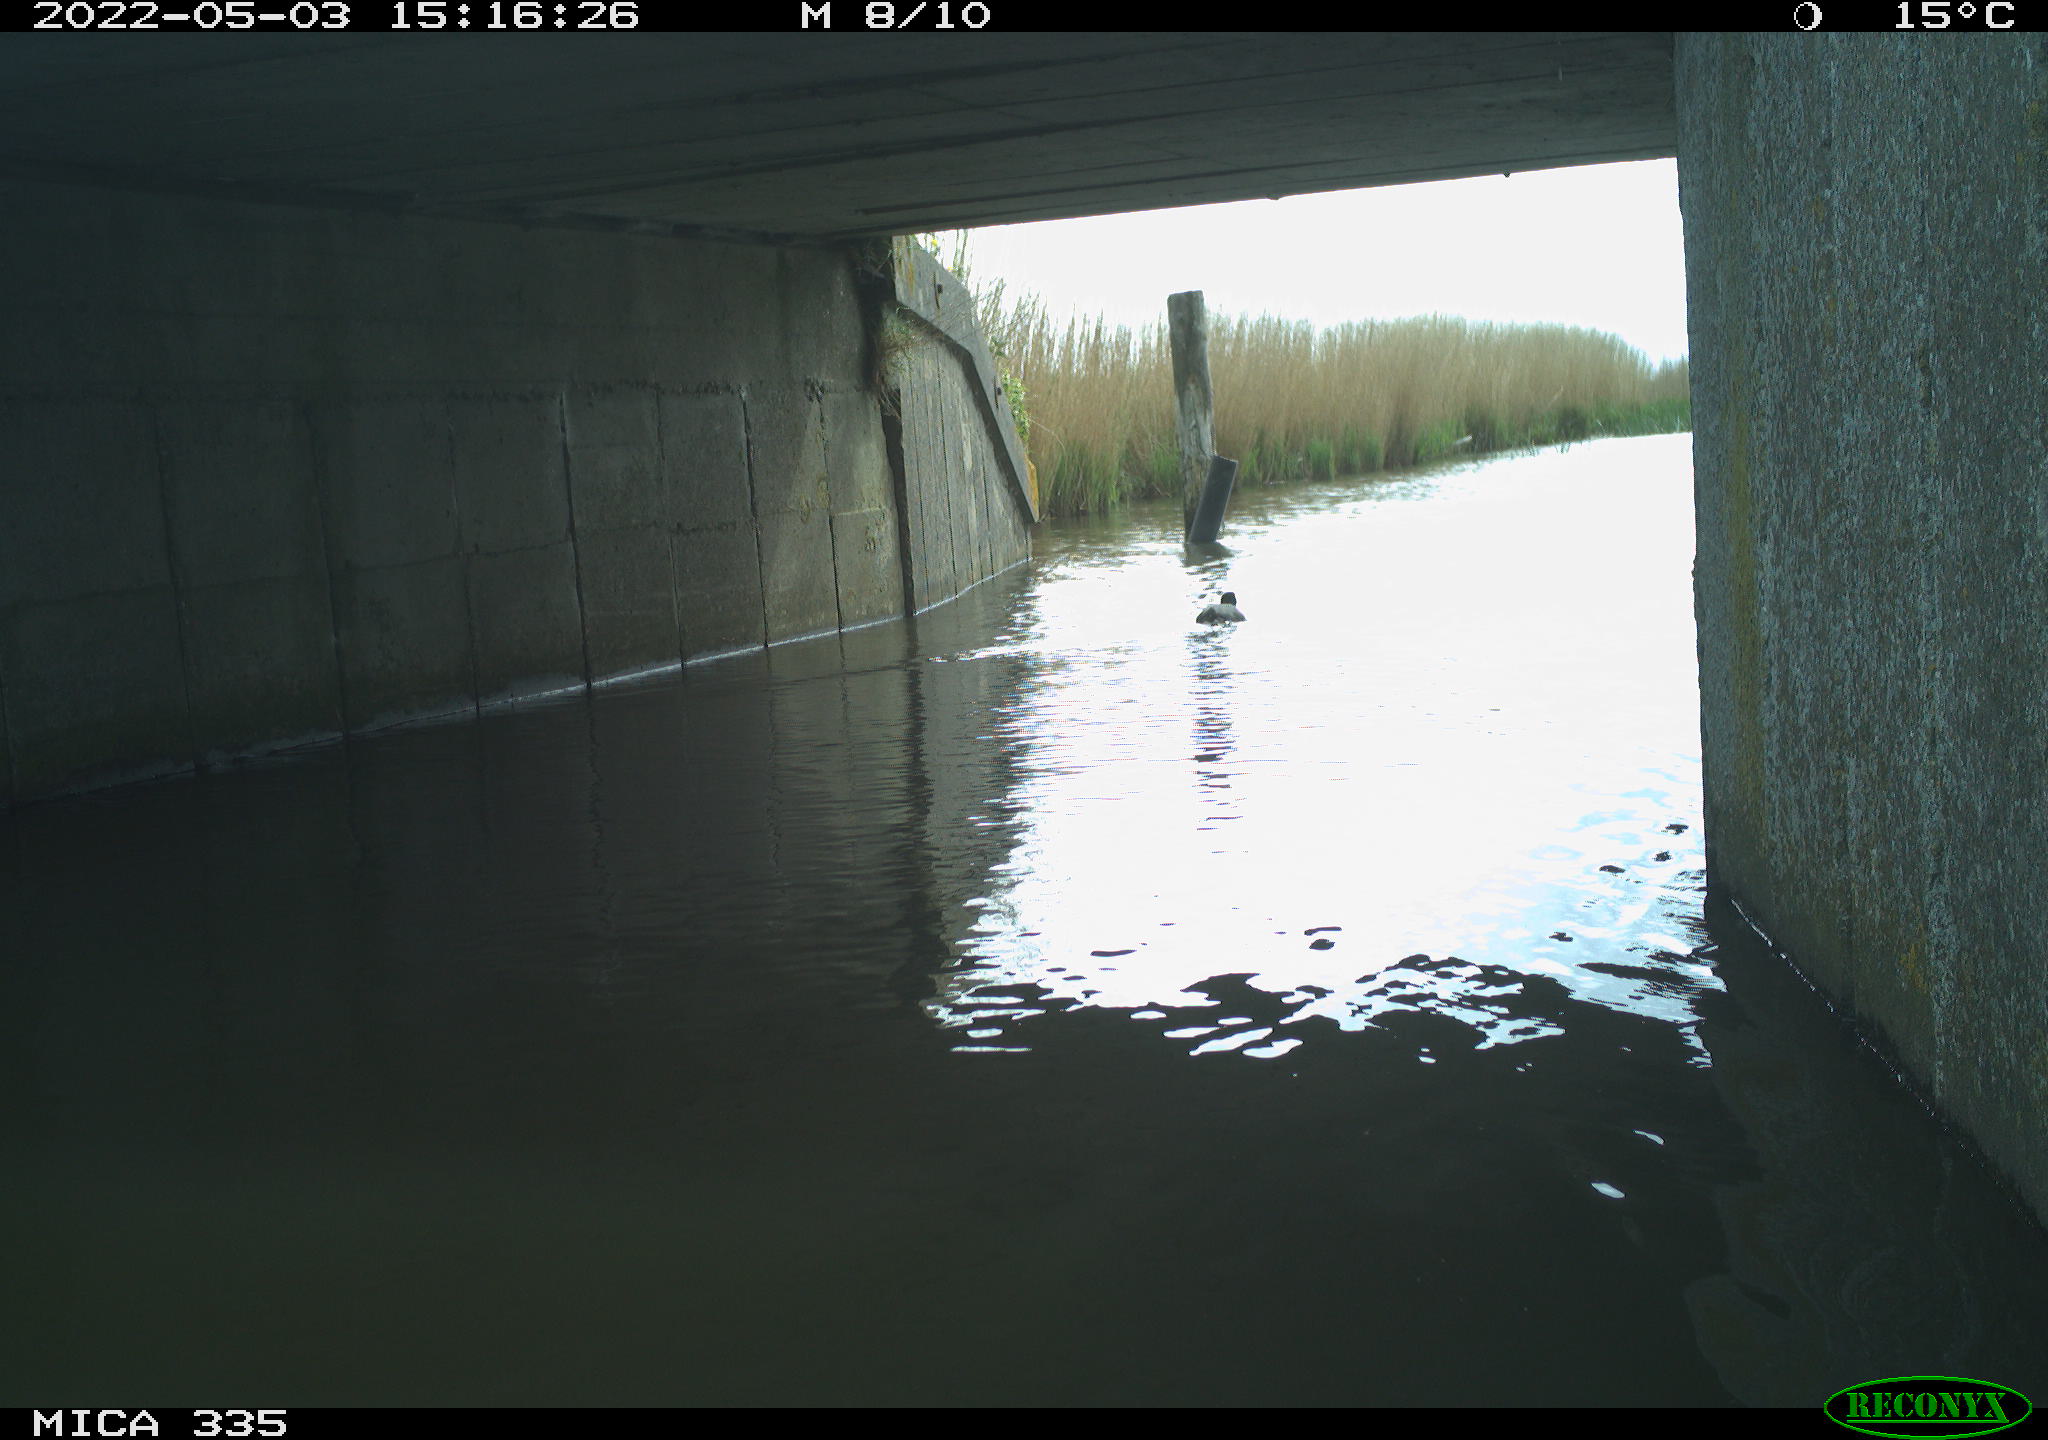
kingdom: Animalia
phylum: Chordata
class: Aves
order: Gruiformes
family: Rallidae
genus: Fulica
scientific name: Fulica atra
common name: Eurasian coot
